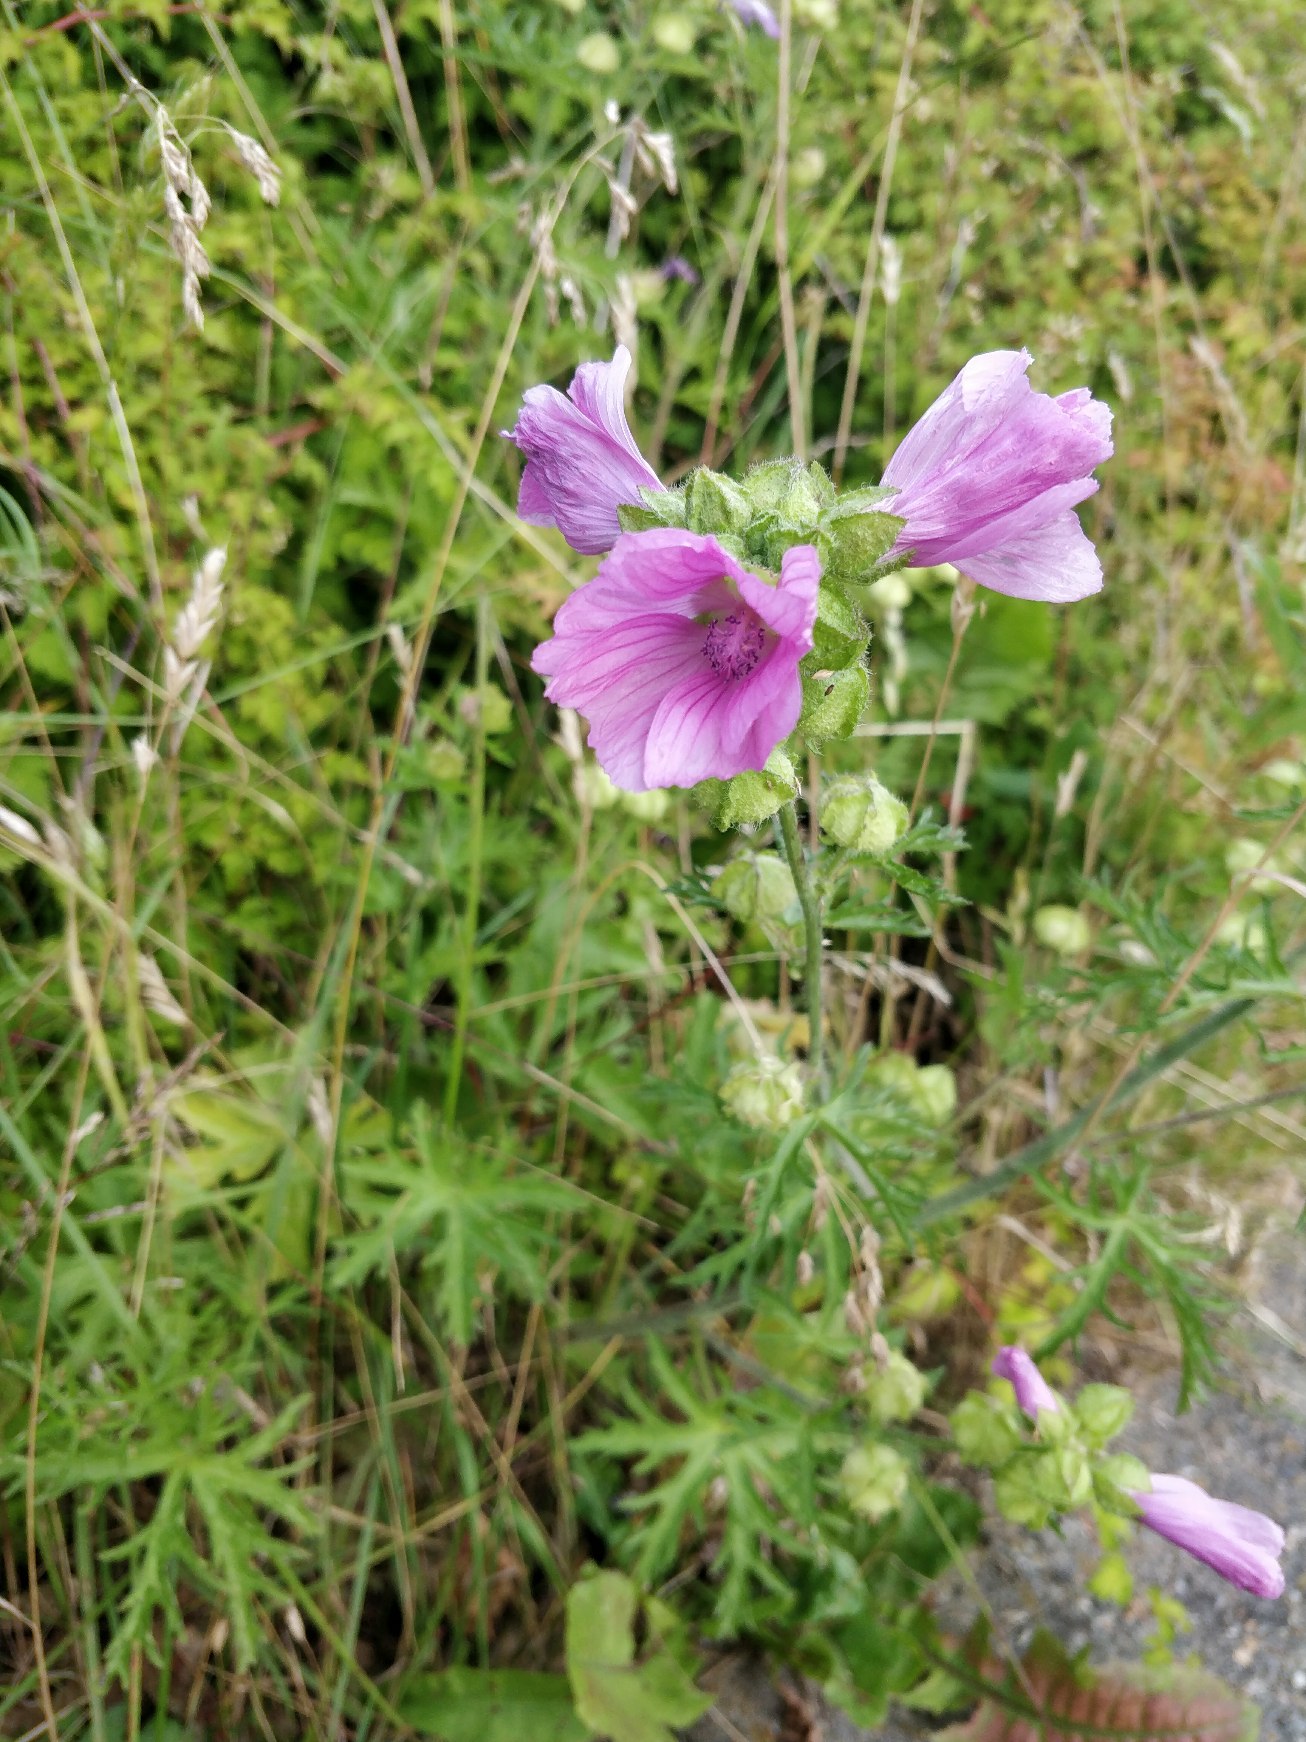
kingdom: Plantae
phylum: Tracheophyta
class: Magnoliopsida
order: Malvales
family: Malvaceae
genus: Malva
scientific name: Malva moschata
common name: Moskus-katost
